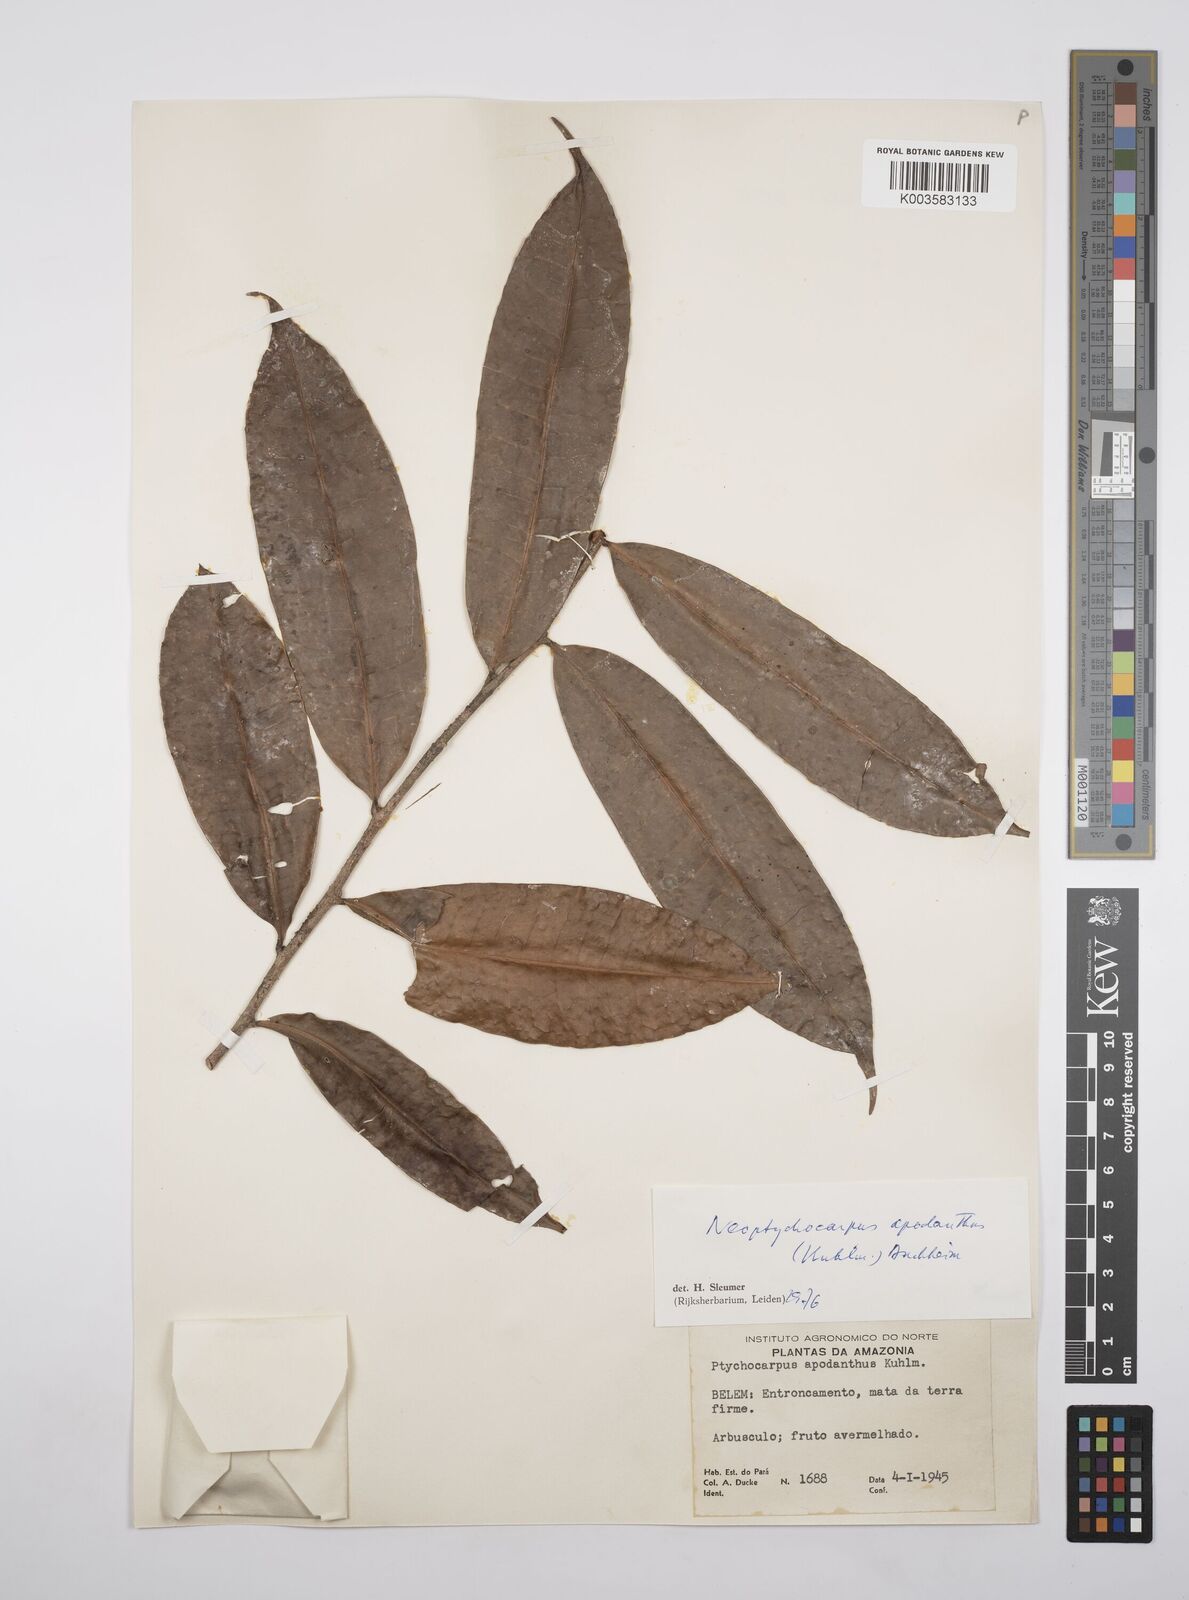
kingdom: Plantae
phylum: Tracheophyta
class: Magnoliopsida
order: Malpighiales
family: Salicaceae
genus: Casearia
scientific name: Casearia apodantha
